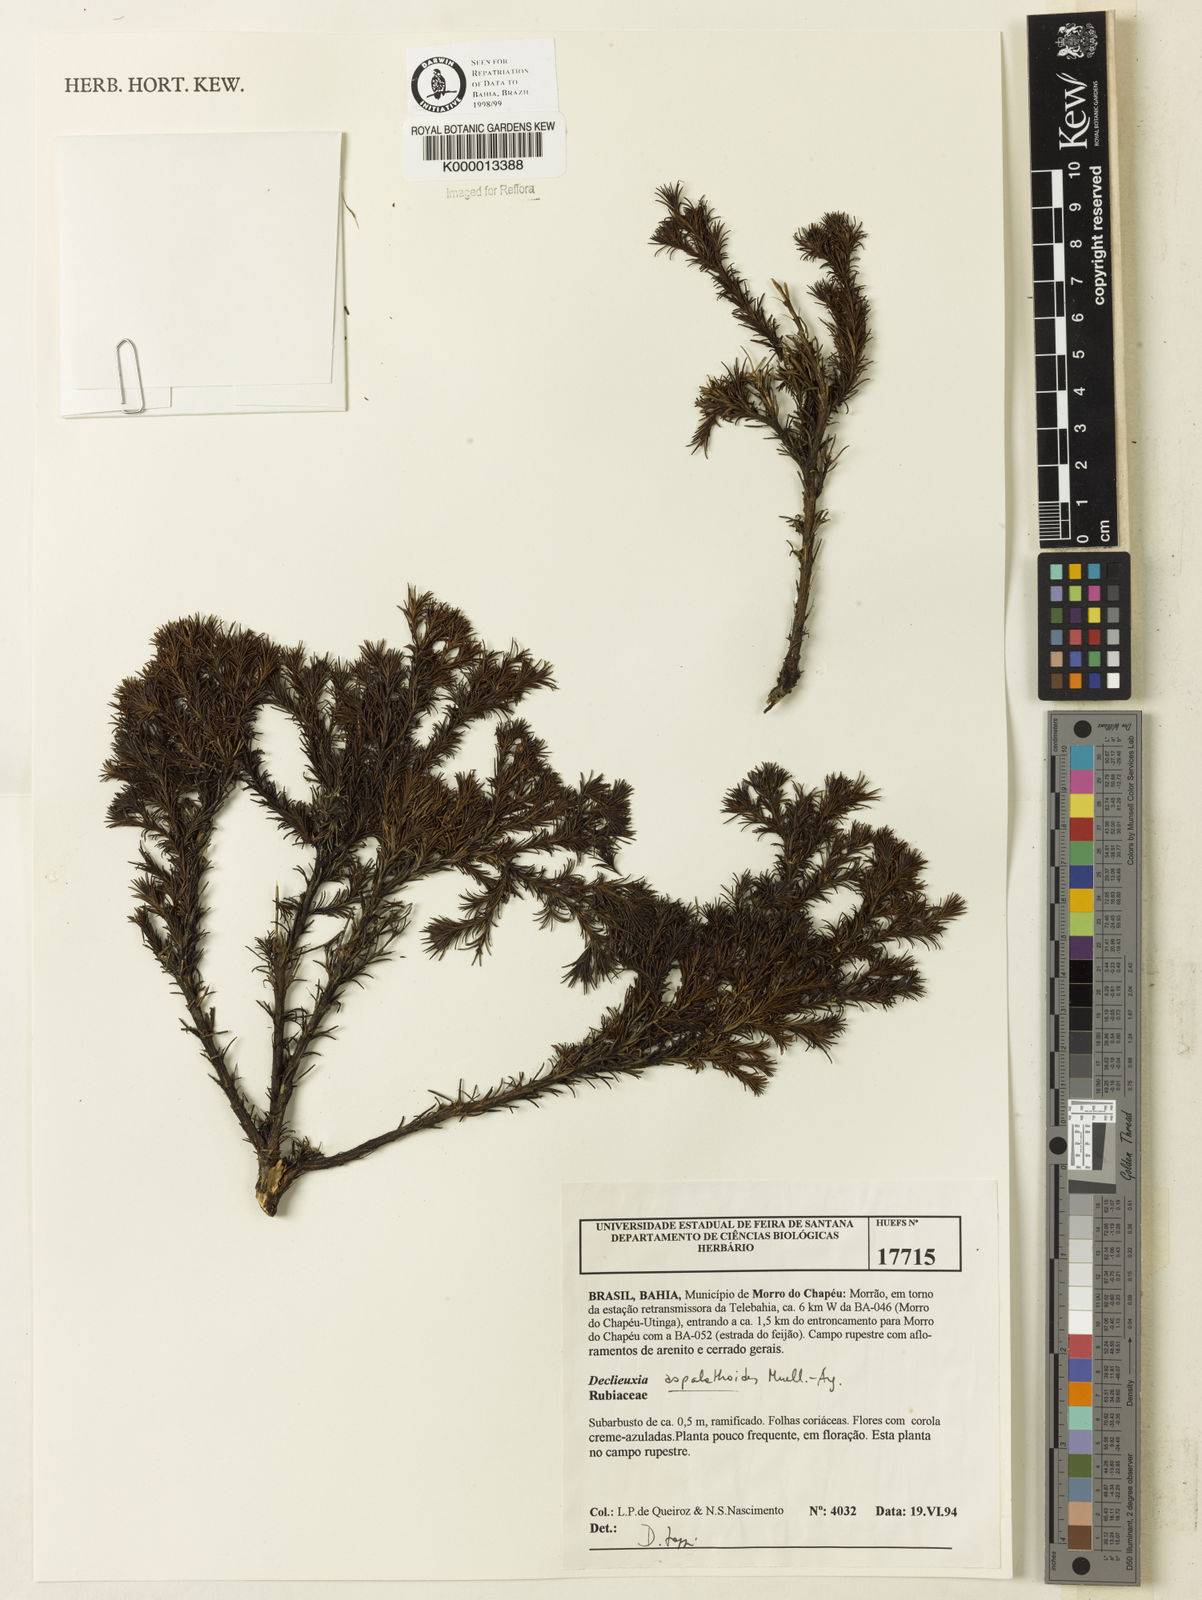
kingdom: Plantae
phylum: Tracheophyta
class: Magnoliopsida
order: Gentianales
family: Rubiaceae
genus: Declieuxia
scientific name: Declieuxia aspalathoides
